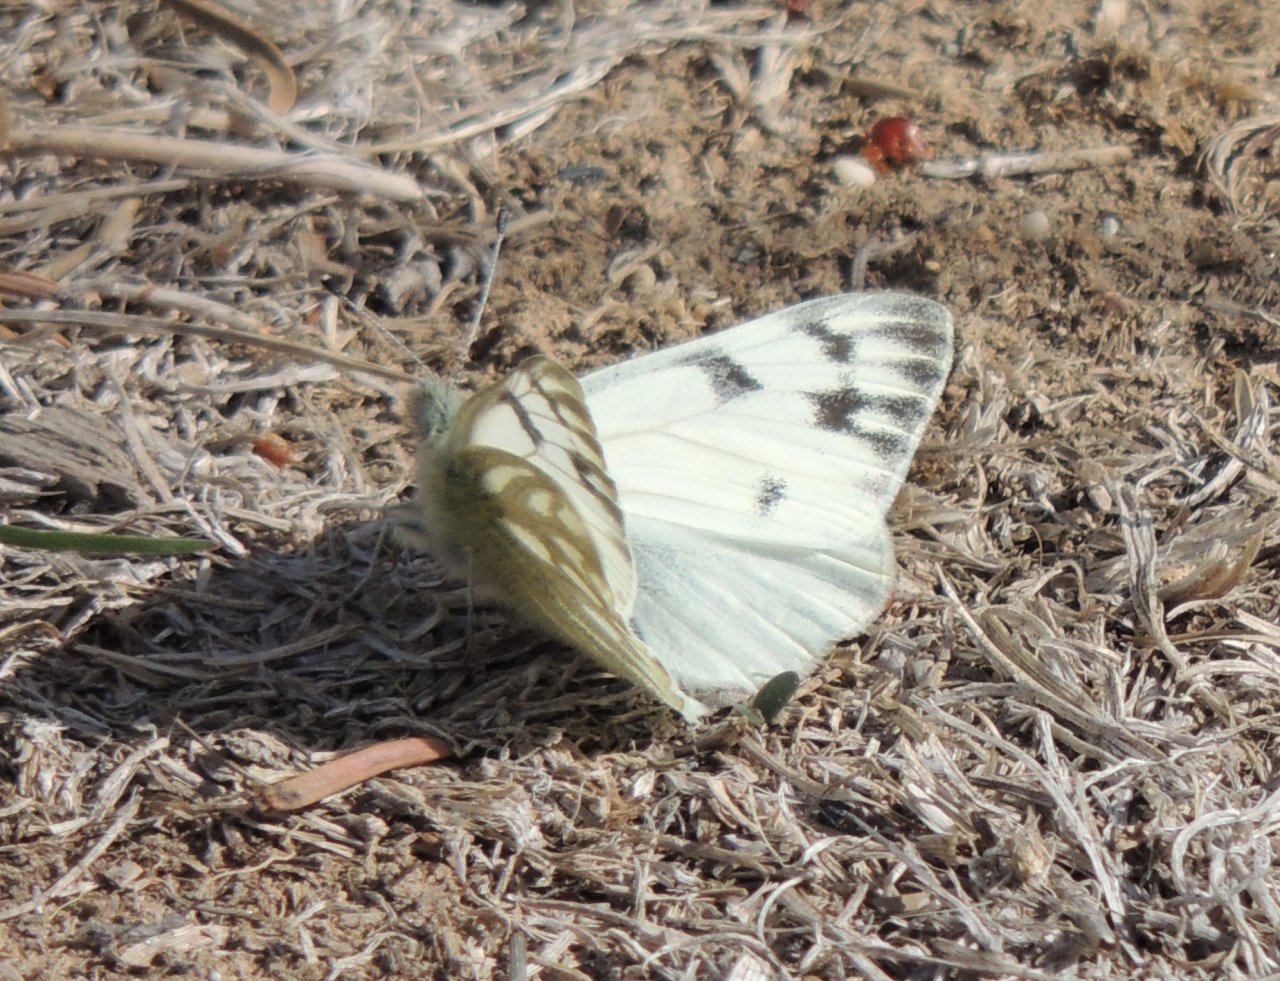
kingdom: Animalia
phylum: Arthropoda
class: Insecta
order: Lepidoptera
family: Pieridae
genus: Pontia
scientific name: Pontia occidentalis
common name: Western White
